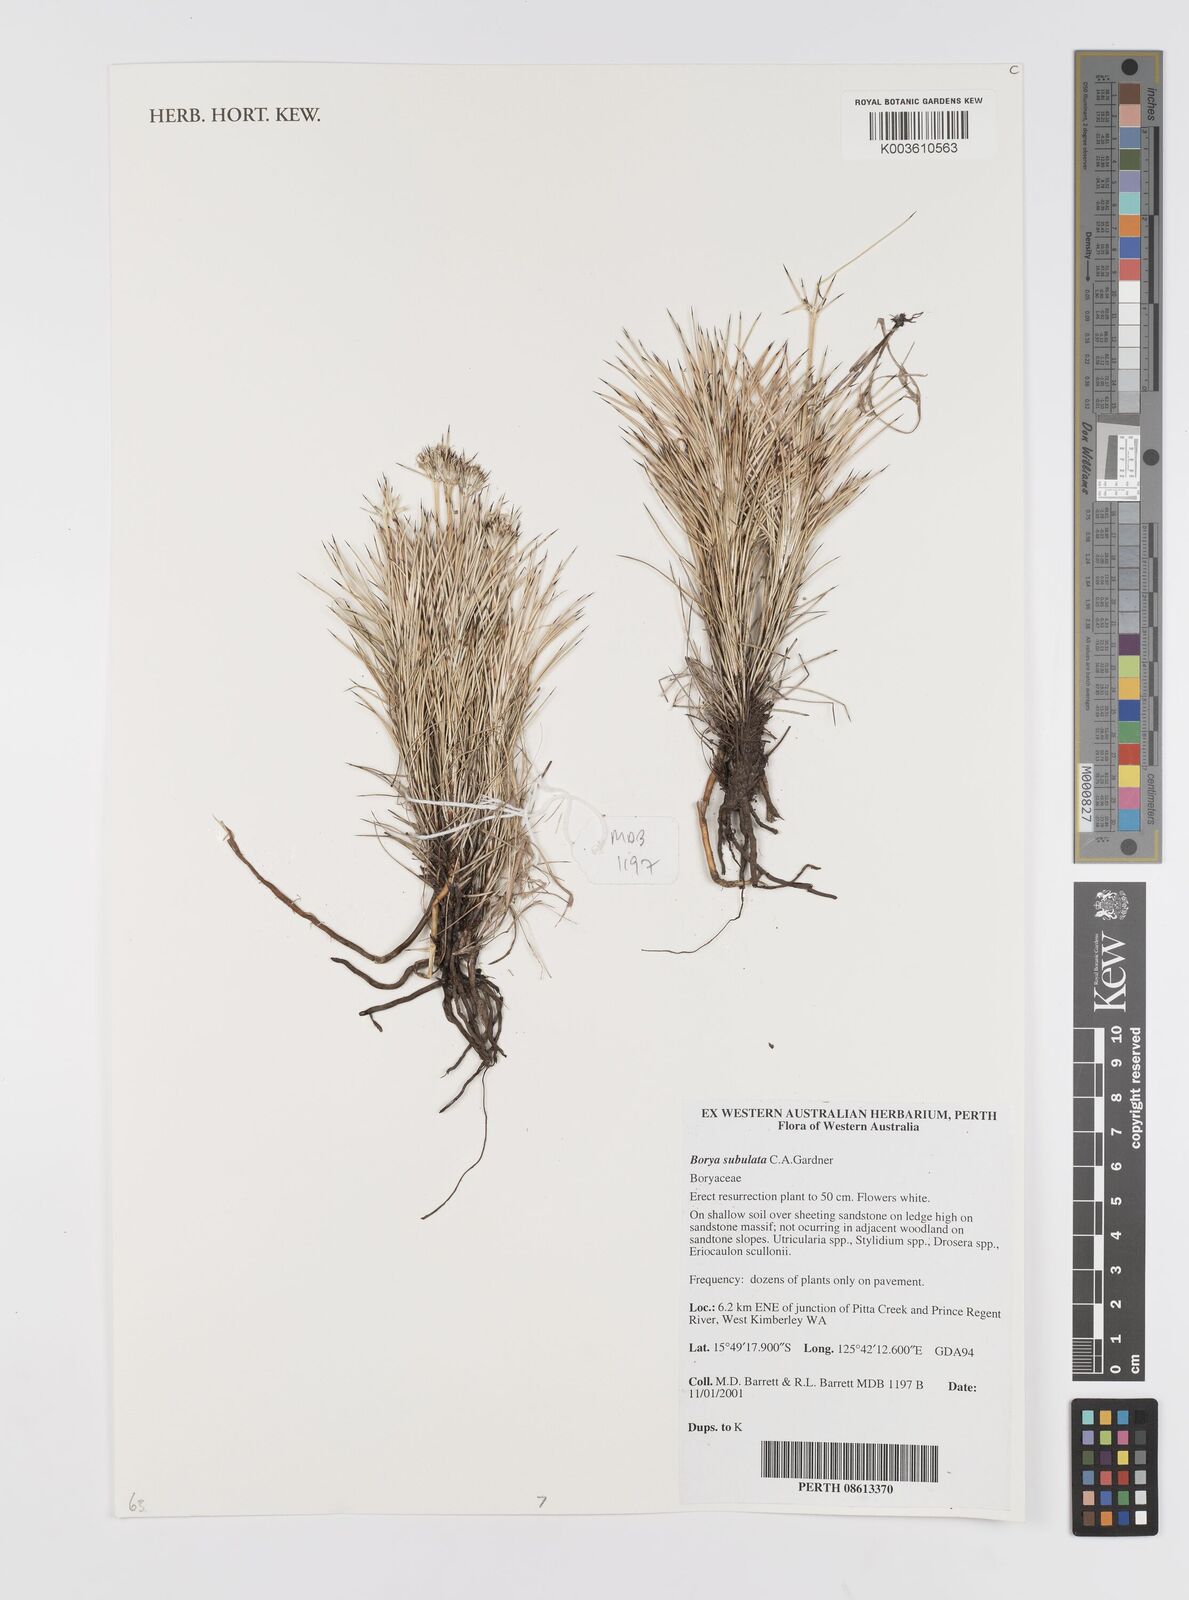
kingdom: Plantae
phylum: Tracheophyta
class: Liliopsida
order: Asparagales
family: Boryaceae
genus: Borya
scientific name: Borya subulata
